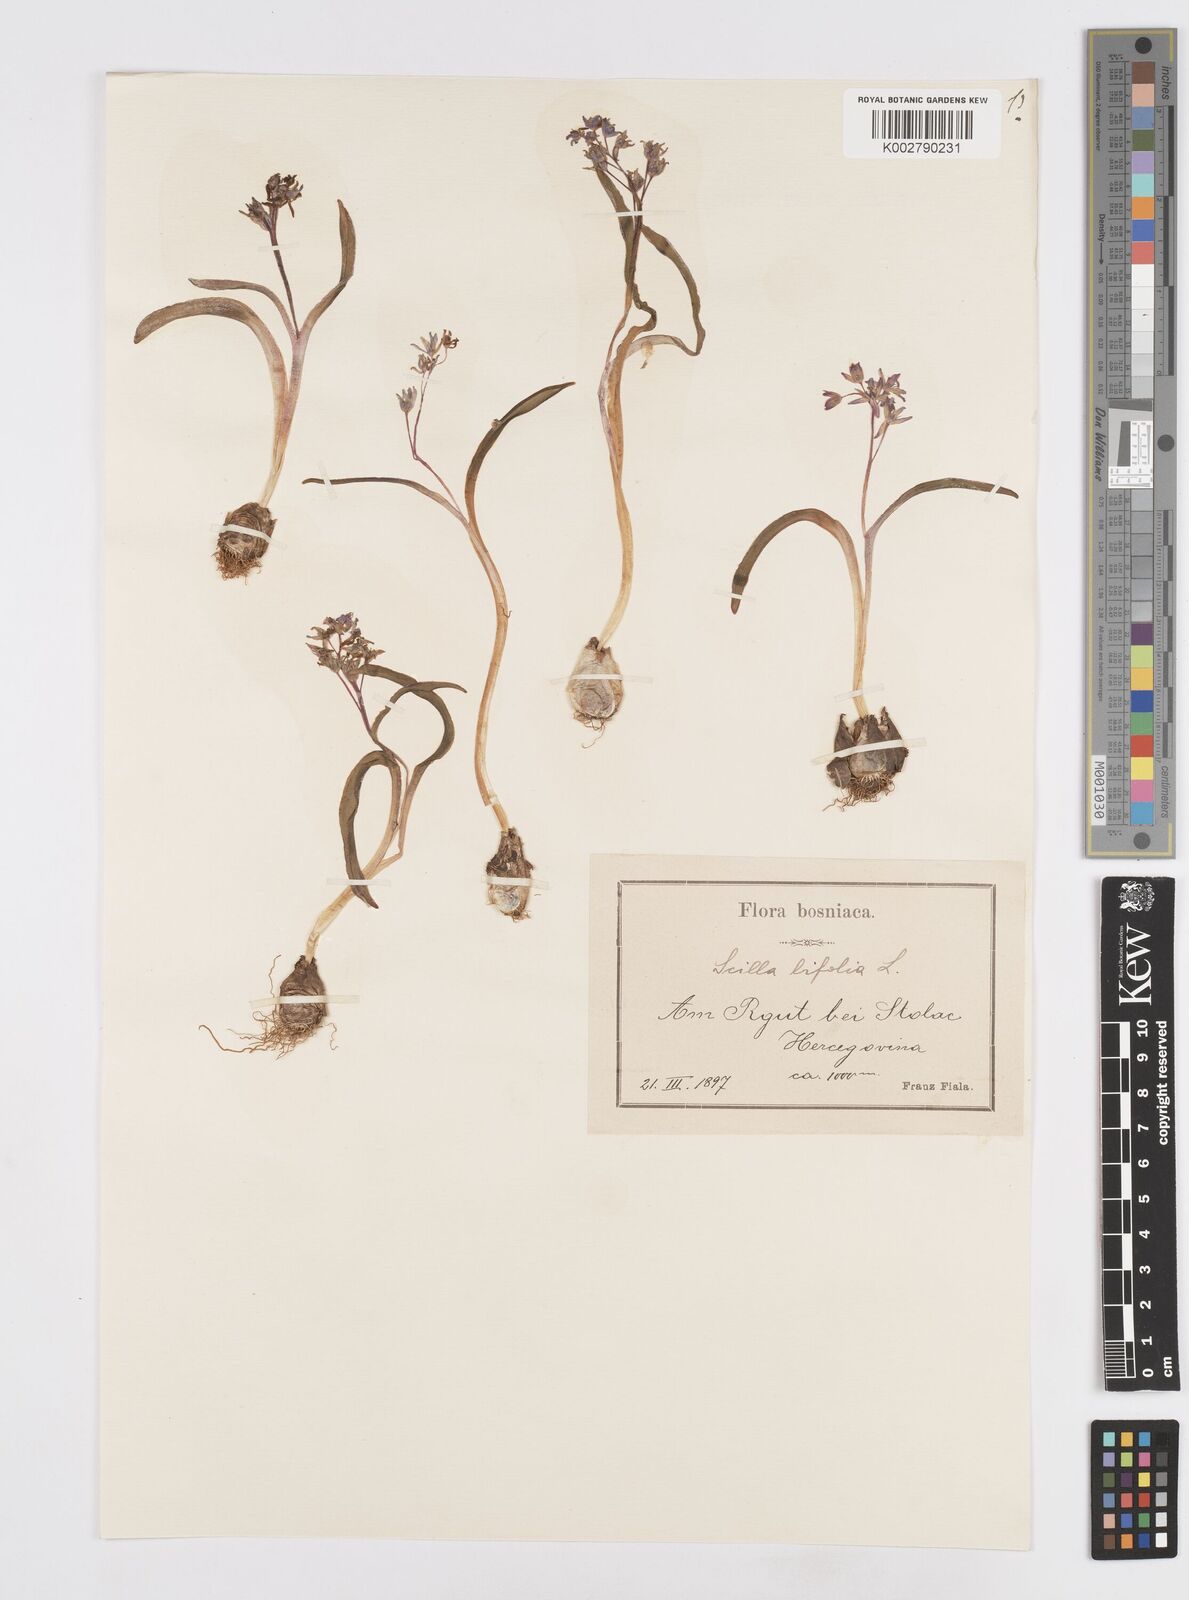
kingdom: Plantae
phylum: Tracheophyta
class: Liliopsida
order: Asparagales
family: Asparagaceae
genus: Scilla
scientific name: Scilla bifolia
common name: Alpine squill
